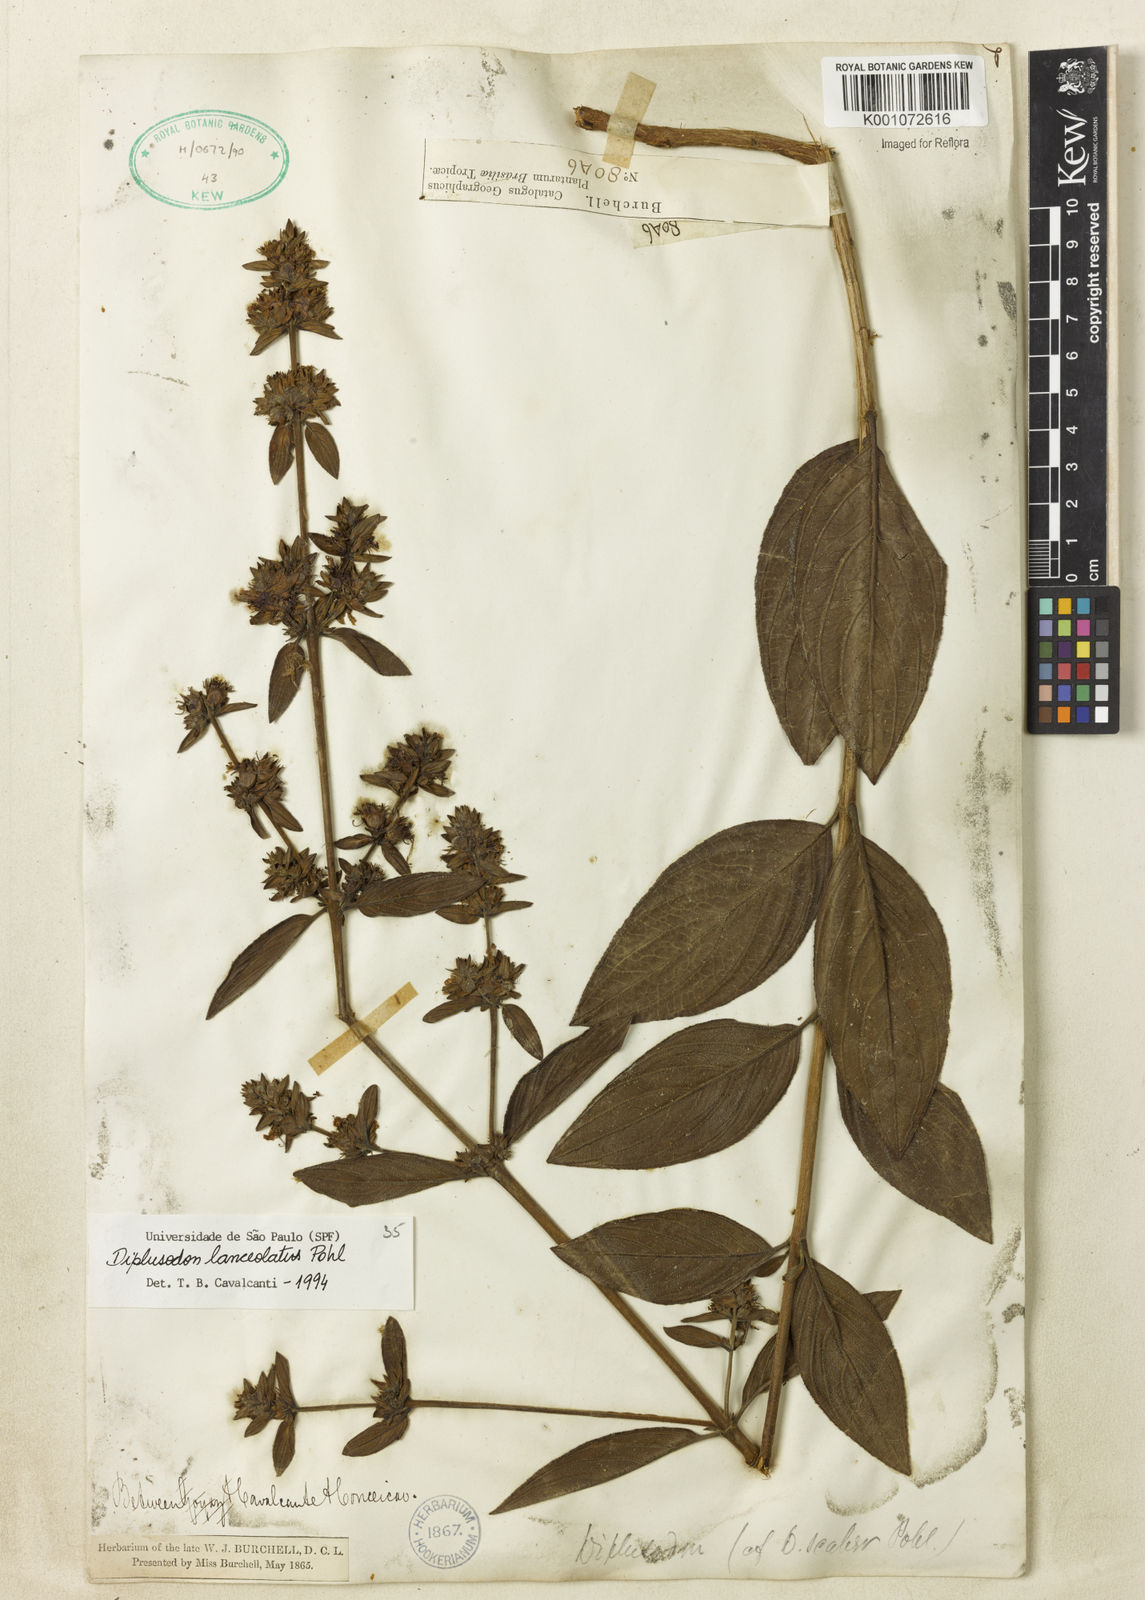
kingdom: Plantae
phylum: Tracheophyta
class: Magnoliopsida
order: Myrtales
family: Lythraceae
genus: Diplusodon
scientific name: Diplusodon lanceolatus
